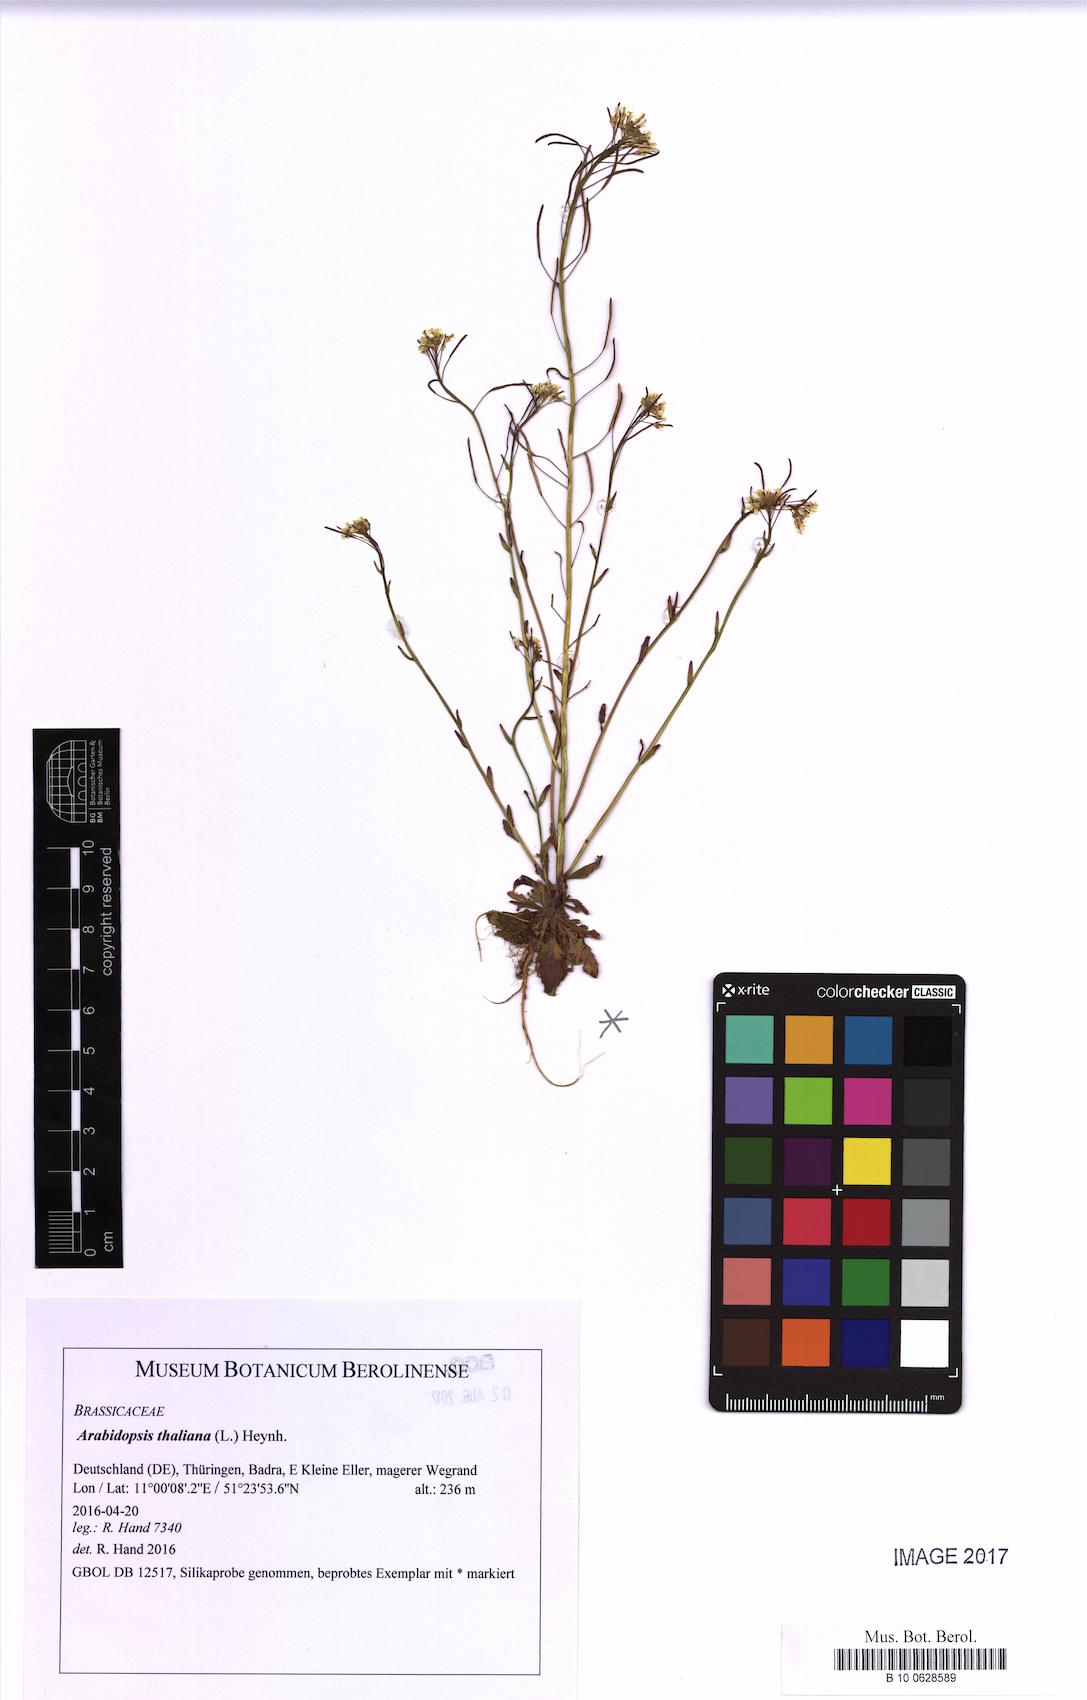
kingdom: Plantae
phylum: Tracheophyta
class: Magnoliopsida
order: Brassicales
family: Brassicaceae
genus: Arabidopsis
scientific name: Arabidopsis thaliana
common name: Thale cress
